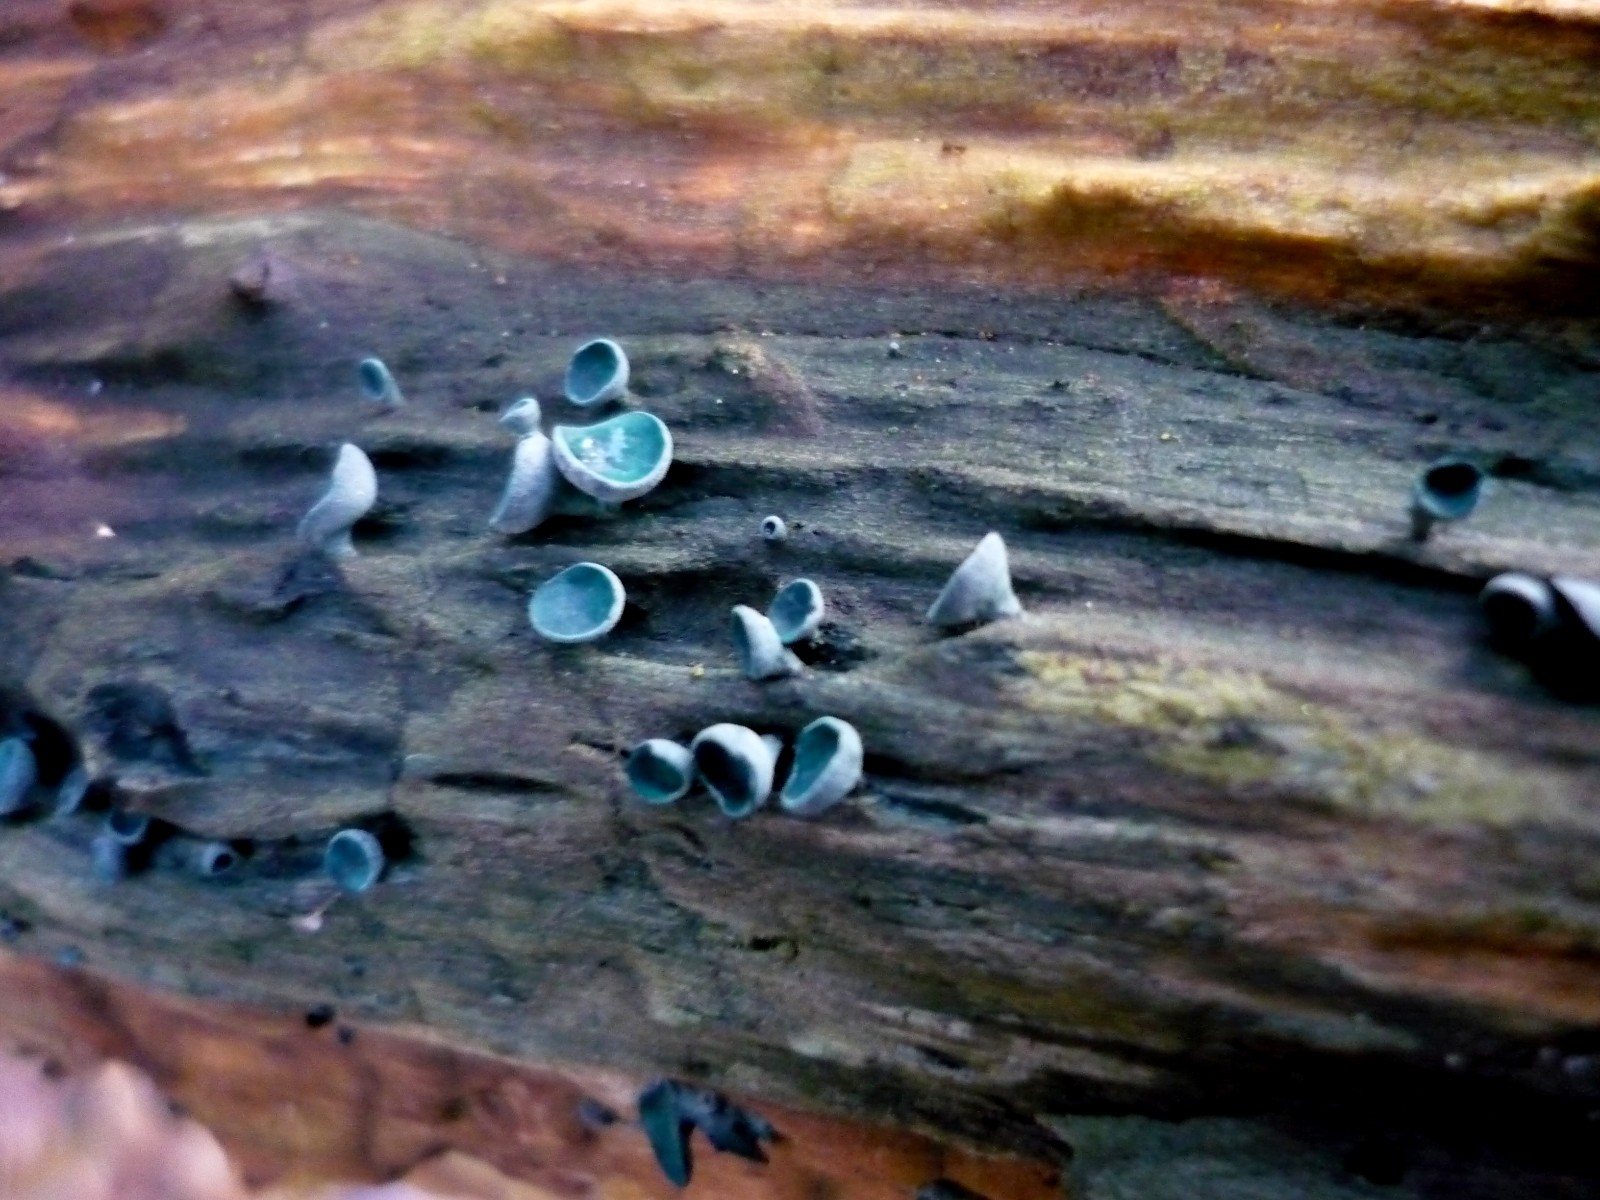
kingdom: Fungi
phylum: Ascomycota
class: Leotiomycetes
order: Helotiales
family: Chlorociboriaceae
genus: Chlorociboria
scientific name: Chlorociboria aeruginascens
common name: almindelig grønskive
